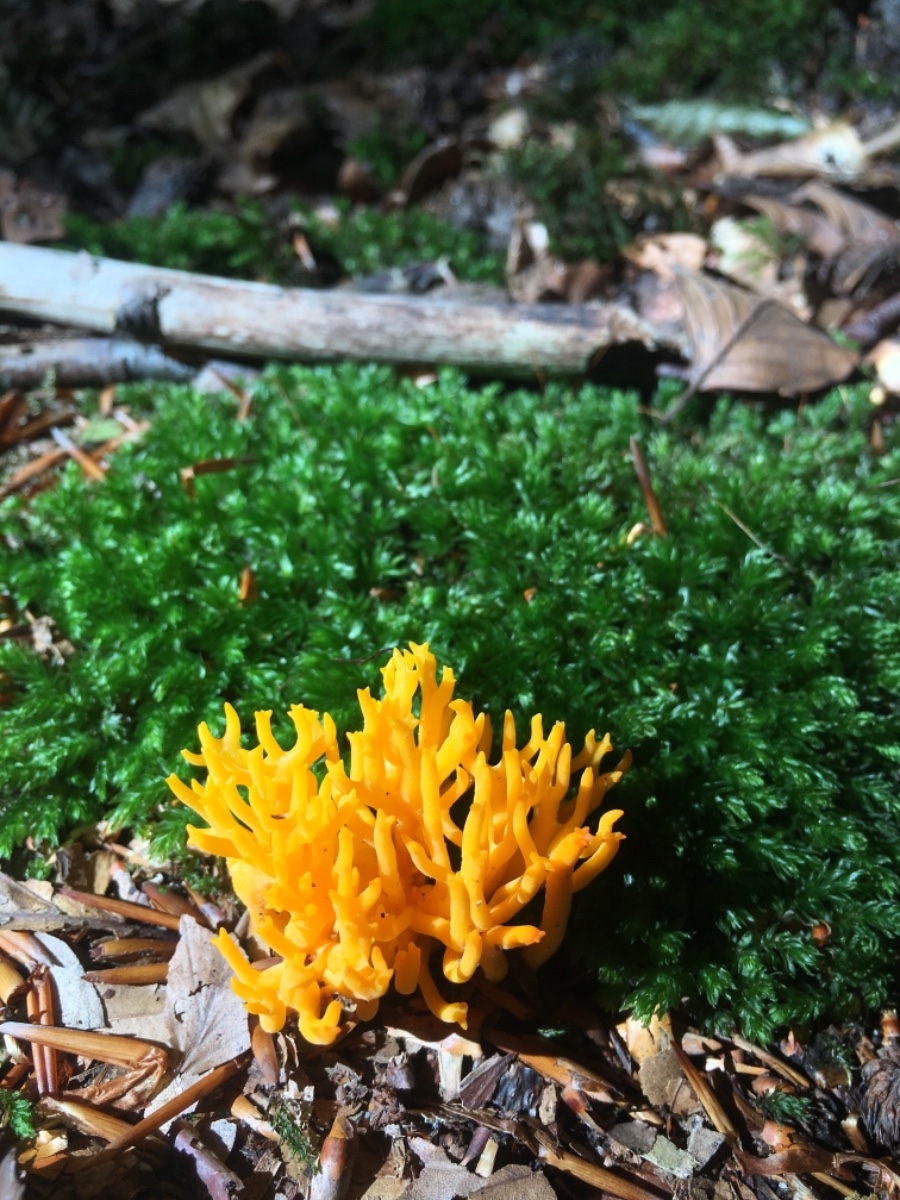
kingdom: Fungi
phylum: Basidiomycota
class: Dacrymycetes
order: Dacrymycetales
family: Dacrymycetaceae
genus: Calocera
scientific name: Calocera viscosa
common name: almindelig guldgaffel
